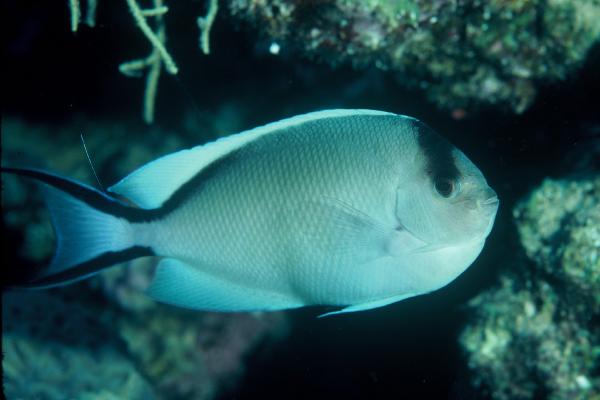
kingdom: Animalia
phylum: Chordata
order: Perciformes
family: Pomacanthidae
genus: Genicanthus
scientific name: Genicanthus caudovittatus
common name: Lyretail angelfish
